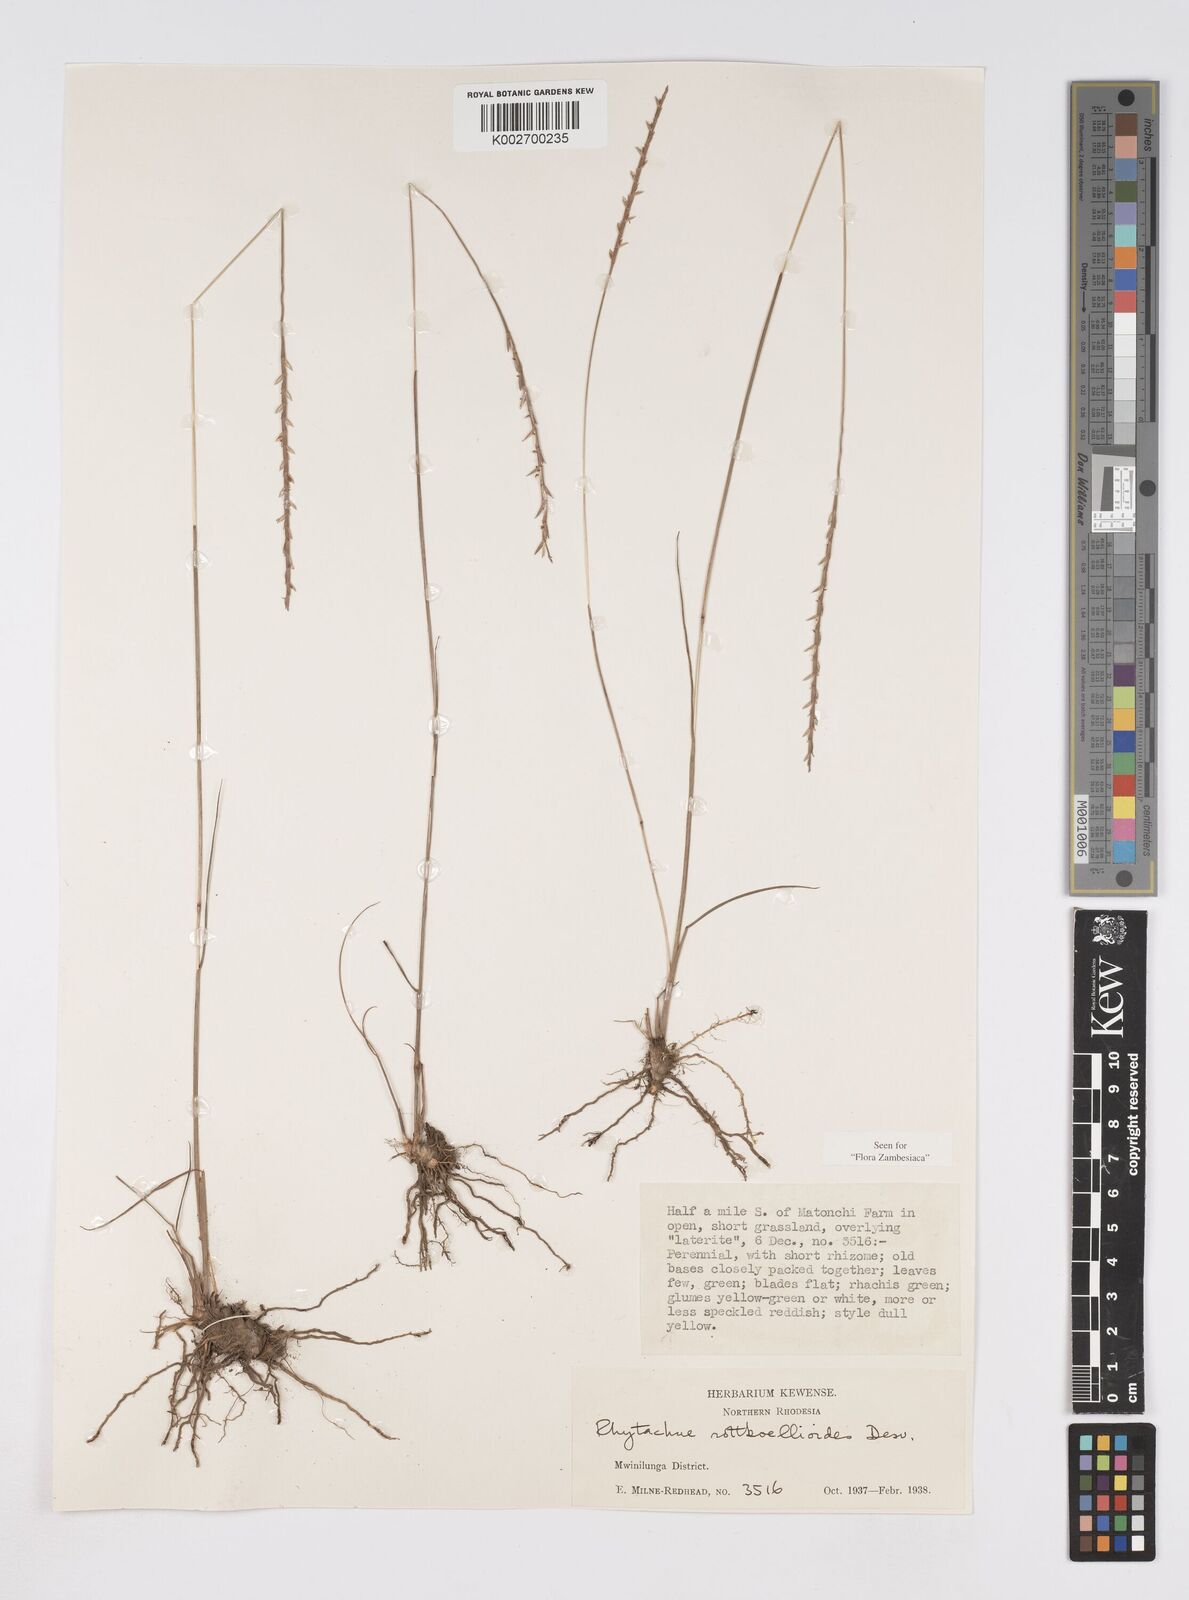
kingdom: Plantae
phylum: Tracheophyta
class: Liliopsida
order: Poales
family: Poaceae
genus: Rhytachne
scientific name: Rhytachne rottboellioides
